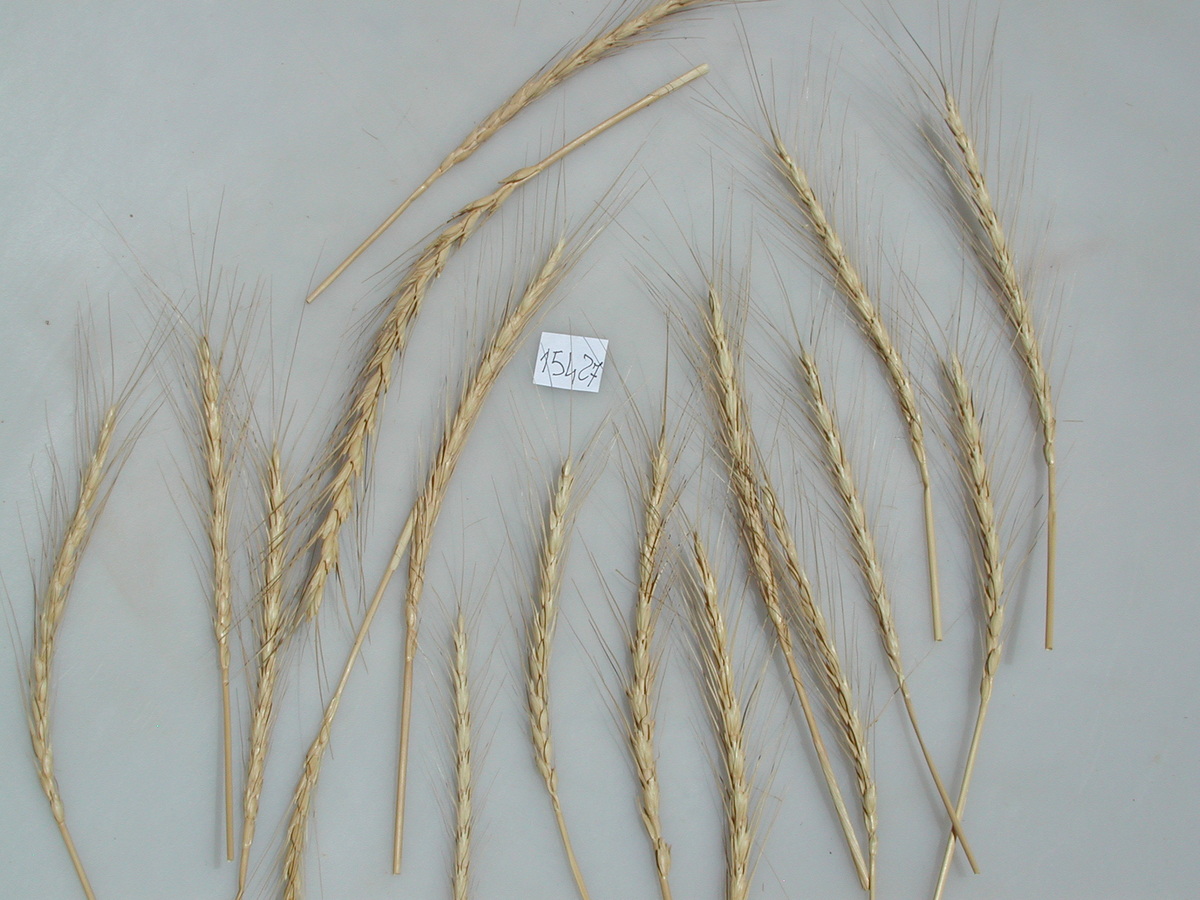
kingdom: Plantae
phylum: Tracheophyta
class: Liliopsida
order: Poales
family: Poaceae
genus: Triticum
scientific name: Triticum aestivum
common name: Common wheat
